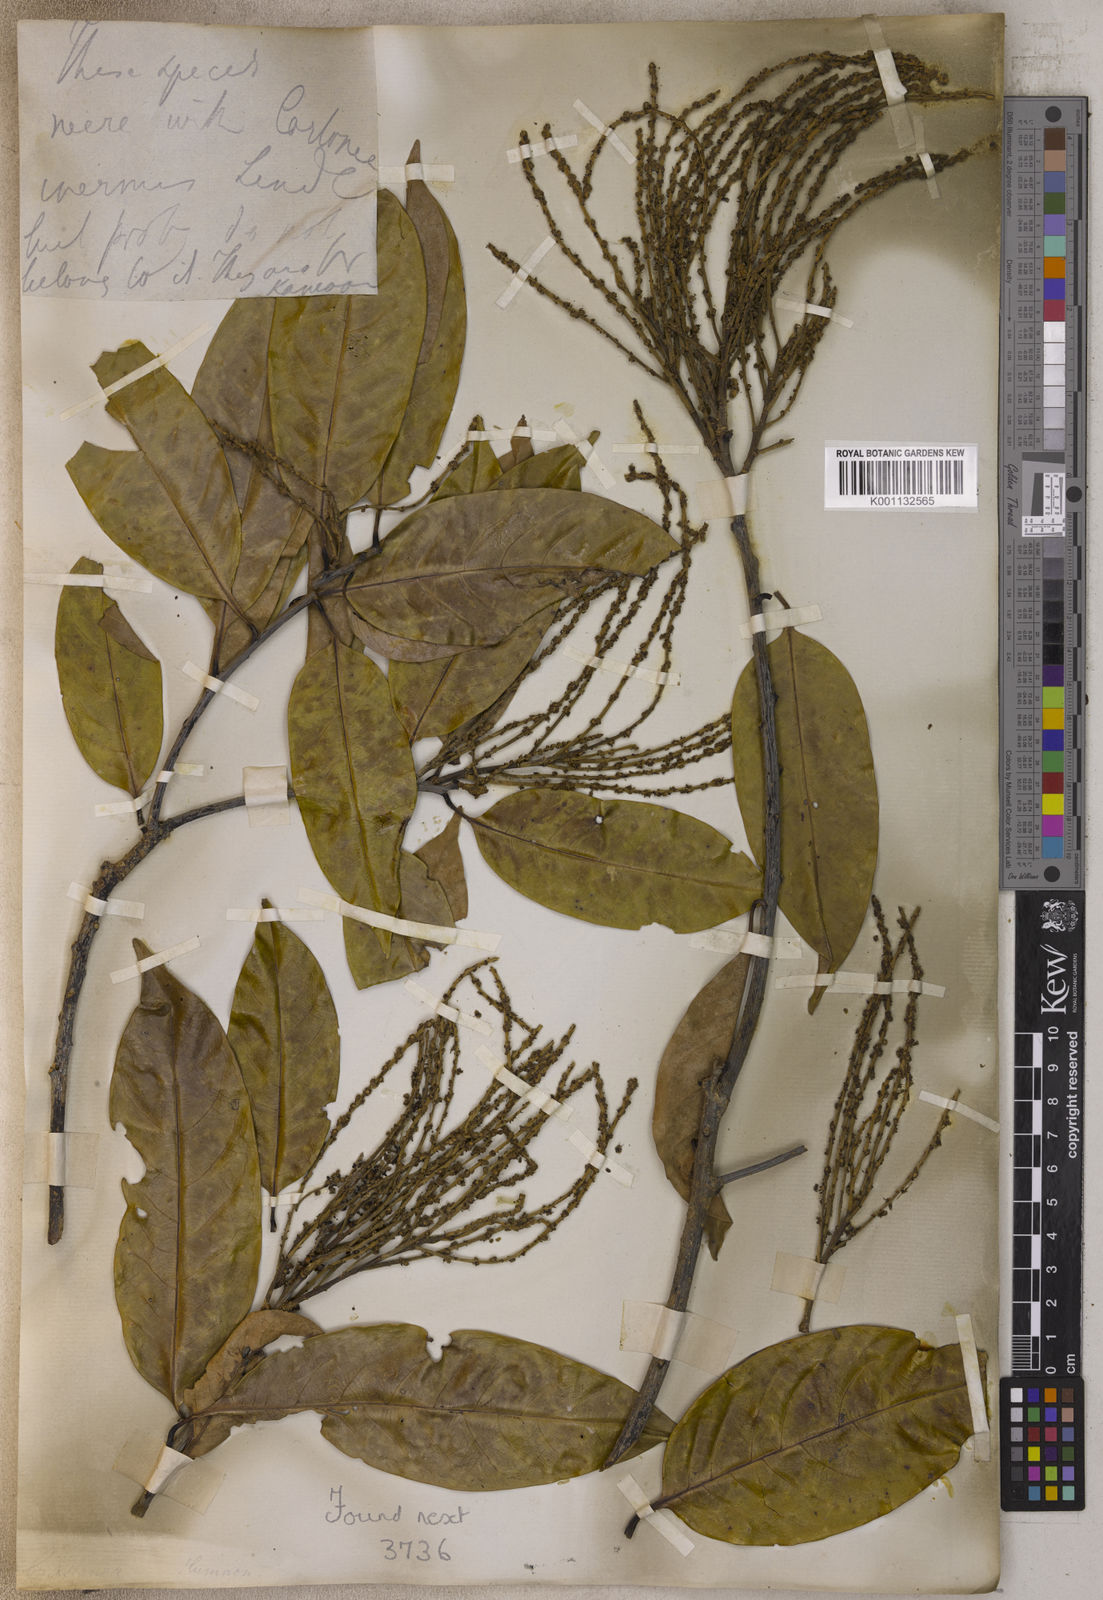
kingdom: Plantae
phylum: Tracheophyta
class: Magnoliopsida
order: Fagales
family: Fagaceae
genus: Castanea
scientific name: Castanea
